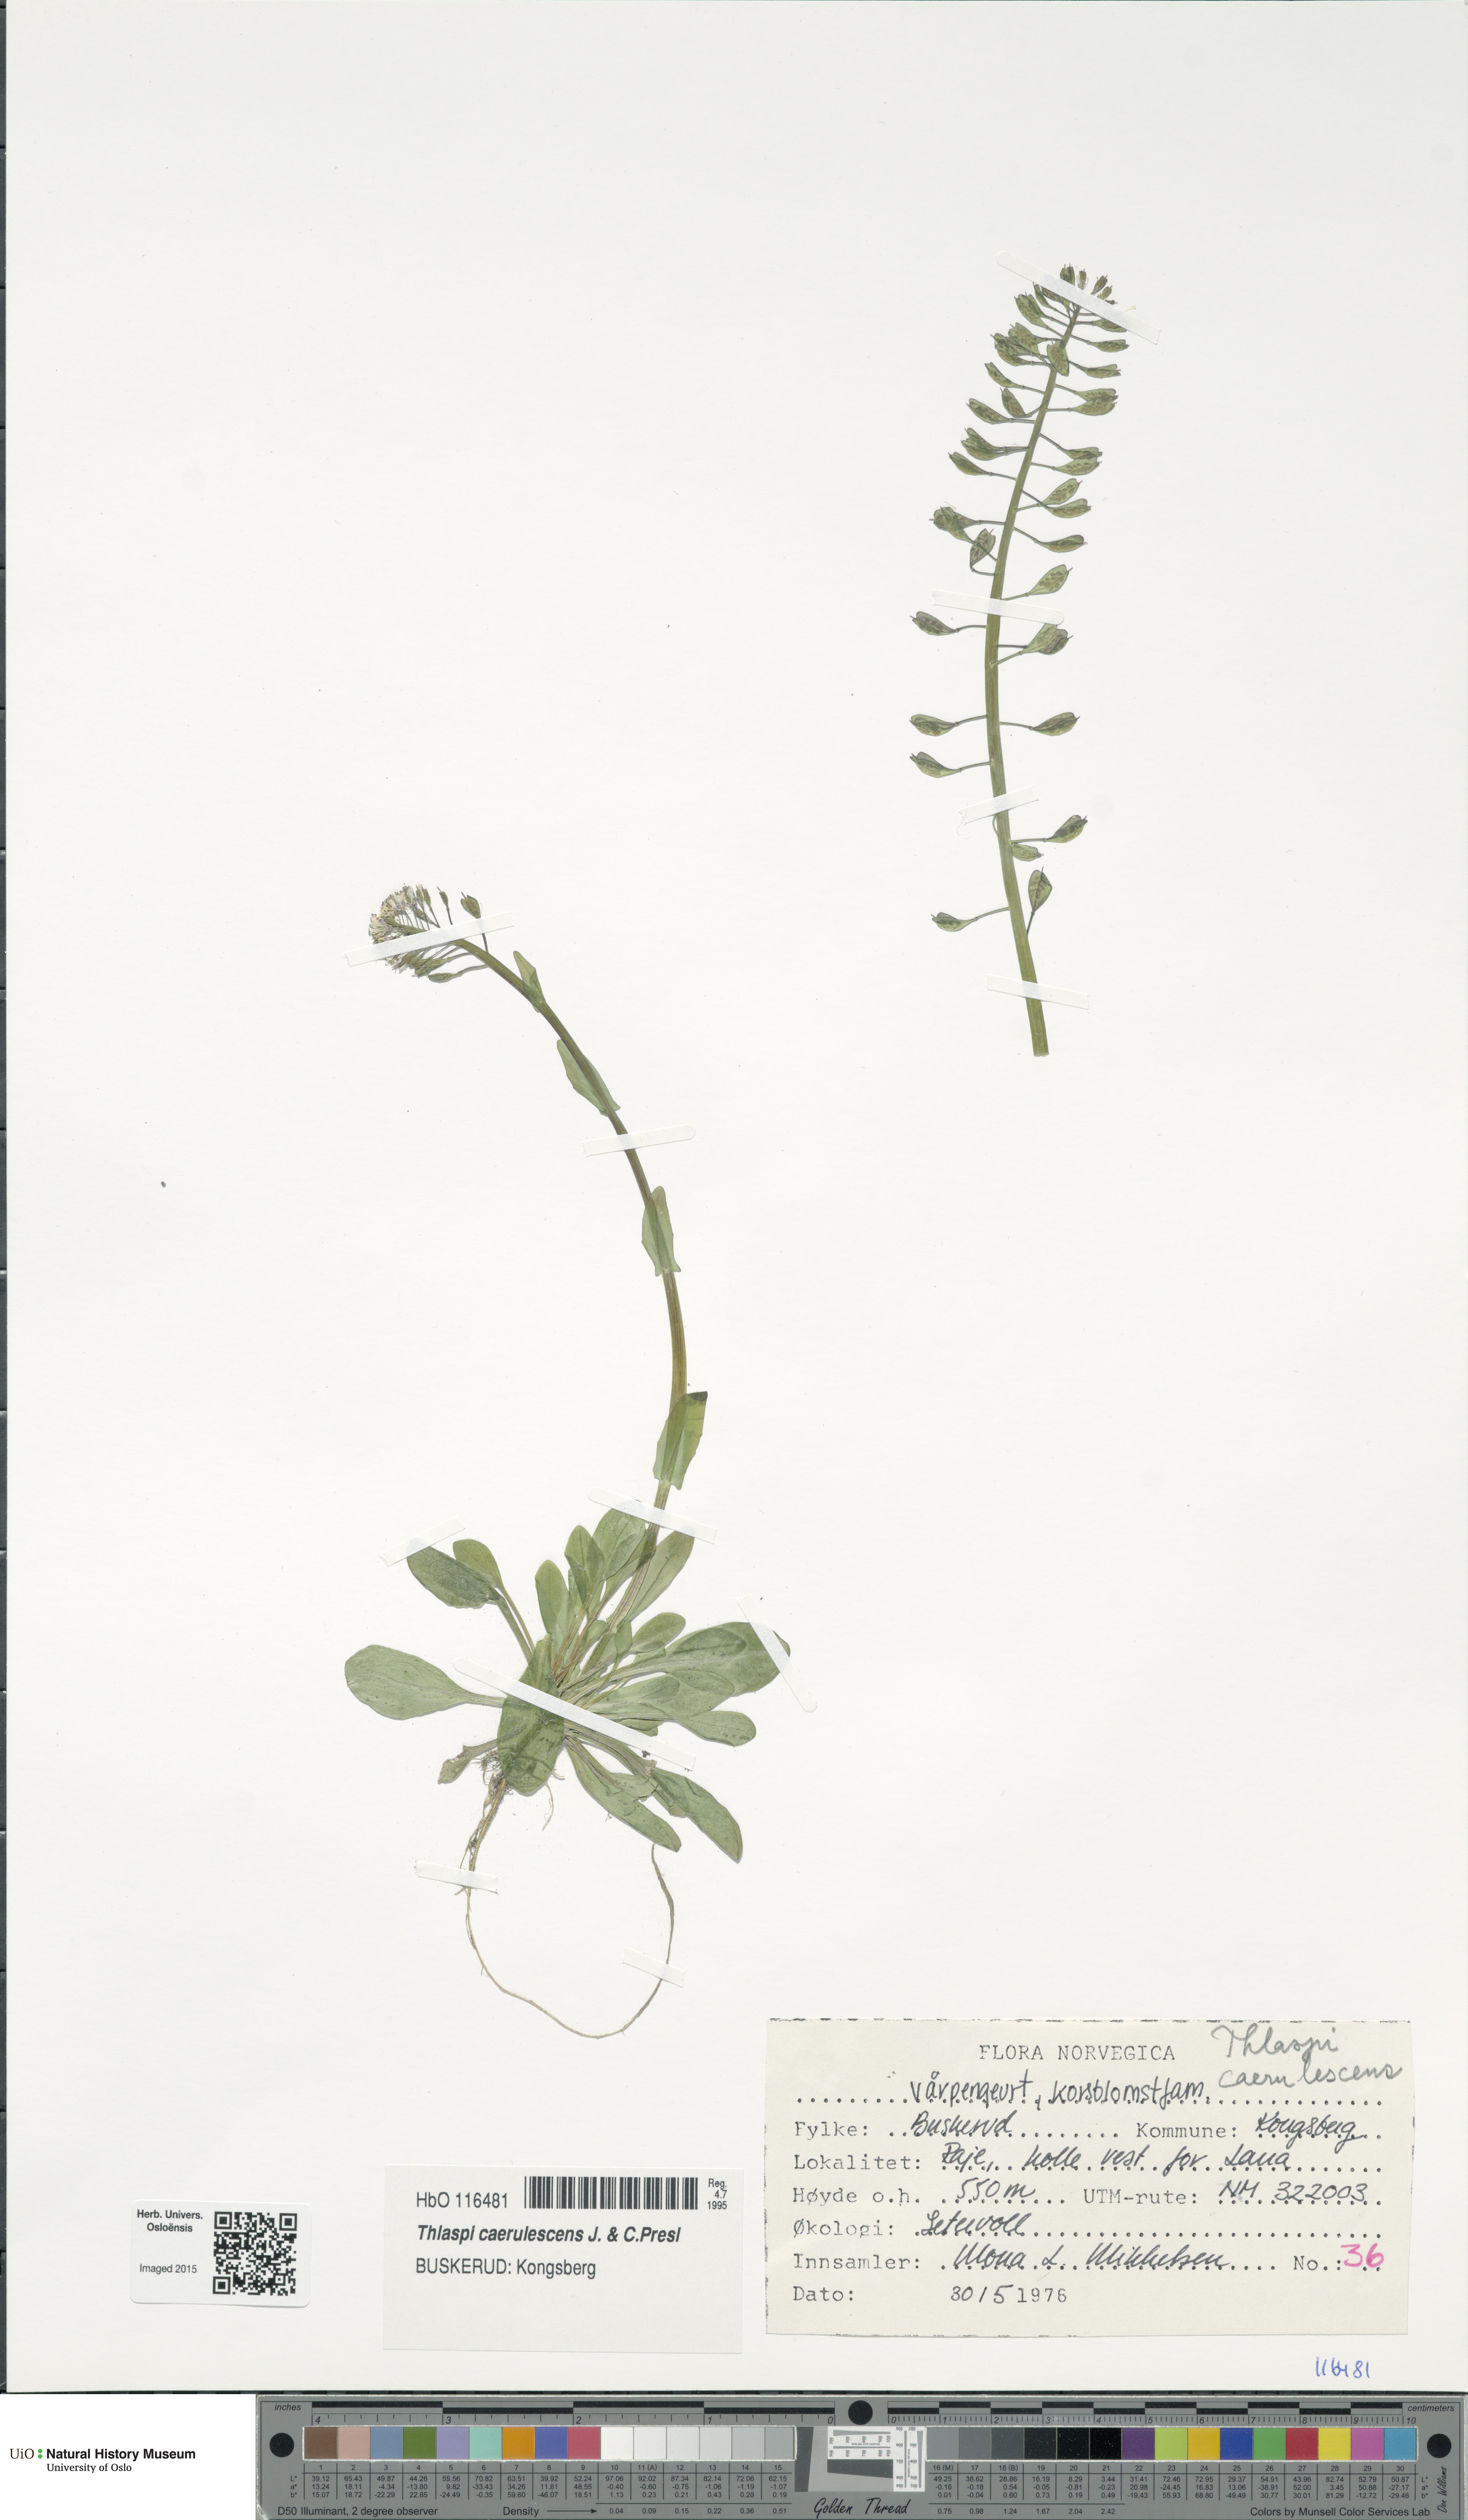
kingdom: Plantae
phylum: Tracheophyta
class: Magnoliopsida
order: Brassicales
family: Brassicaceae
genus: Noccaea
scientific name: Noccaea caerulescens
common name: Alpine pennycress
